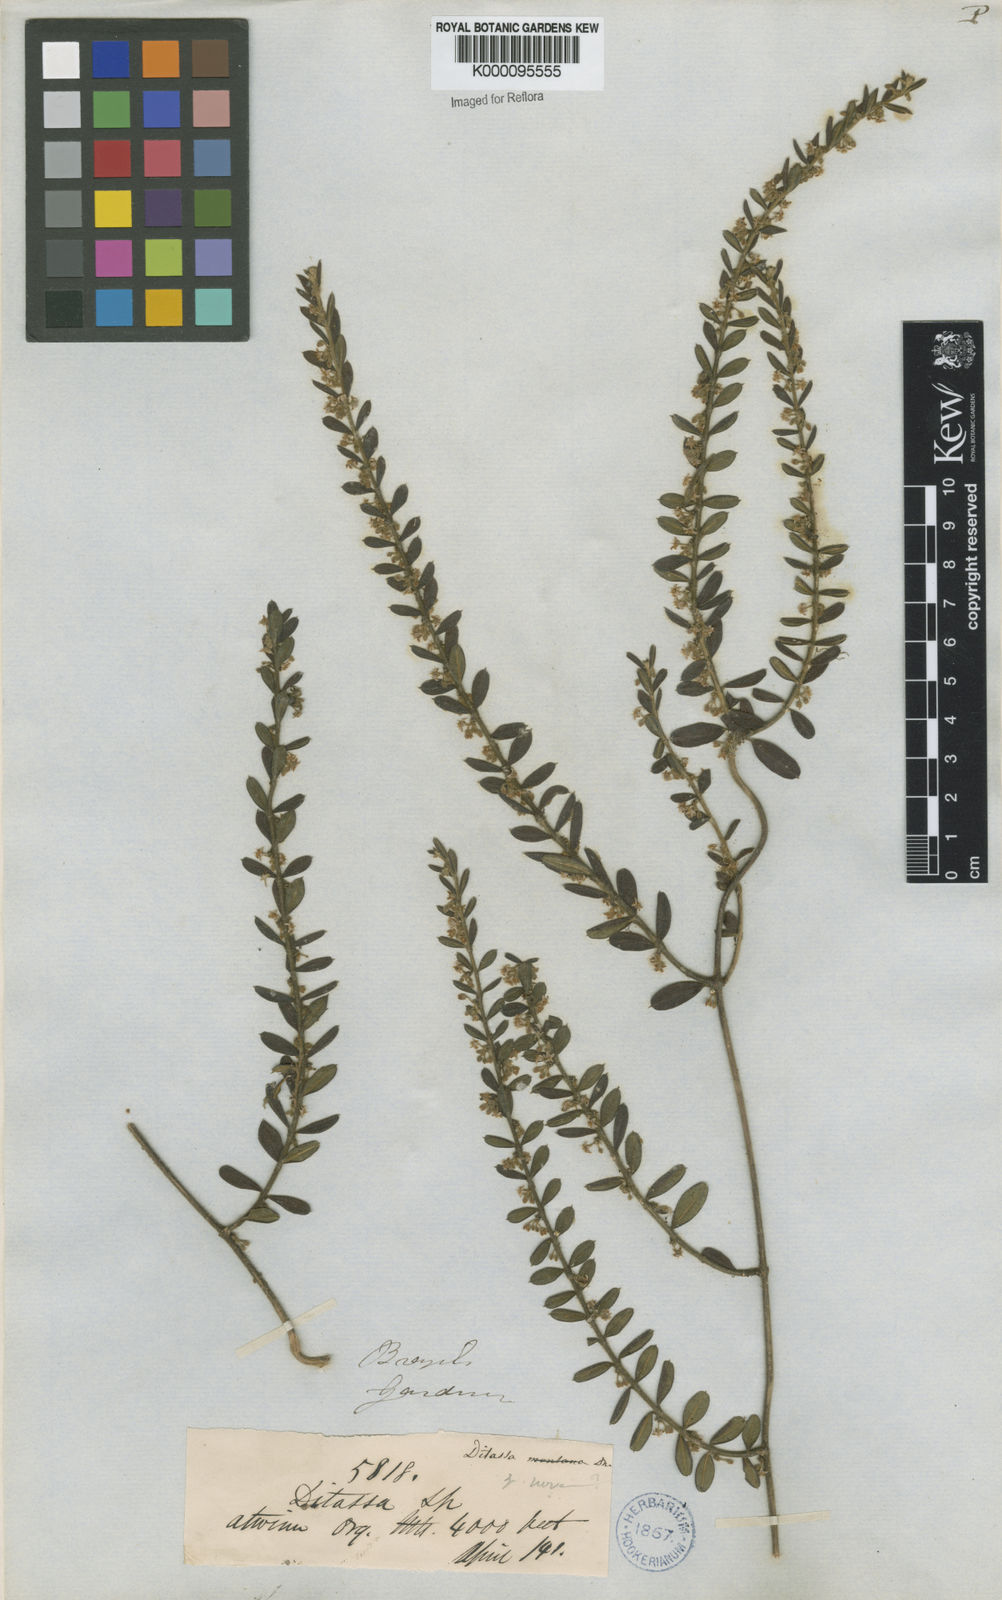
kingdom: Plantae
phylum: Tracheophyta
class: Magnoliopsida
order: Gentianales
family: Apocynaceae
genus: Ditassa
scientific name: Ditassa mucronata
